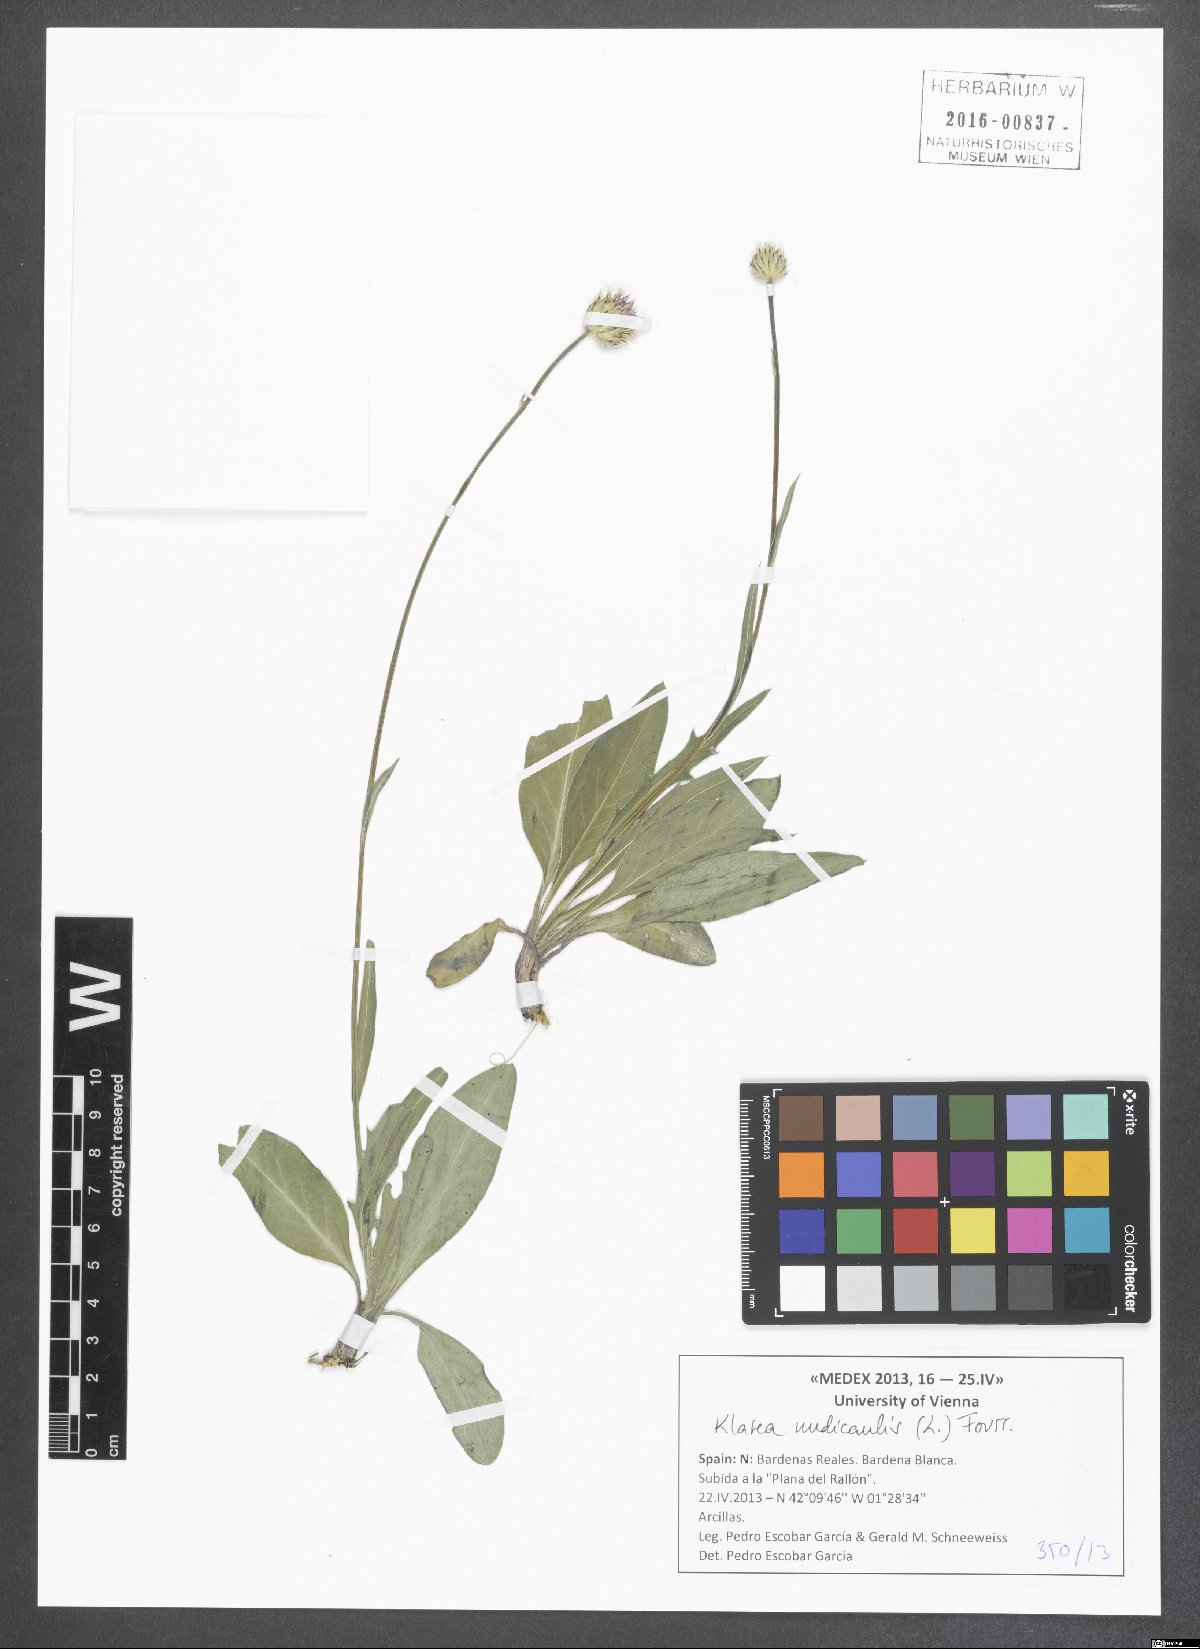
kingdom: Plantae
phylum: Tracheophyta
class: Magnoliopsida
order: Asterales
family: Asteraceae
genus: Klasea
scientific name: Klasea nudicaulis
